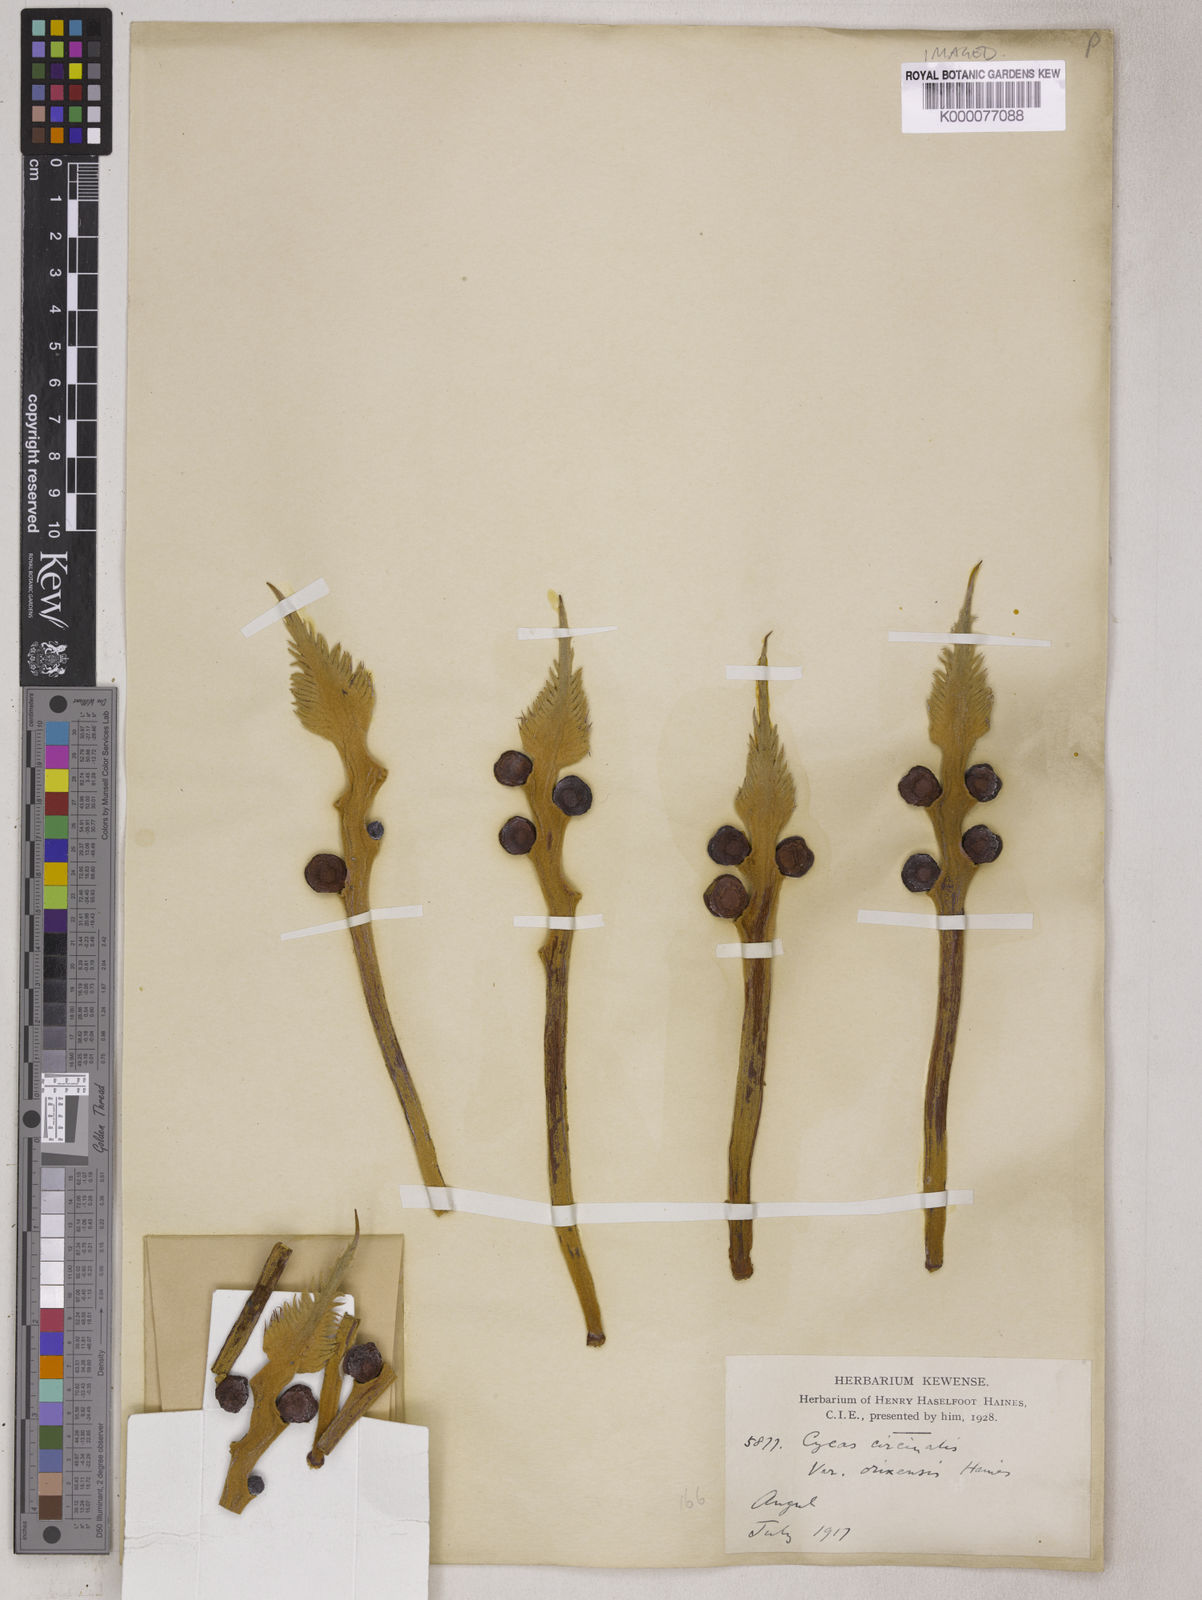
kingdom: Plantae
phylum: Tracheophyta
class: Cycadopsida
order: Cycadales
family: Cycadaceae
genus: Cycas
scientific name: Cycas circinalis
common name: Queen sago
